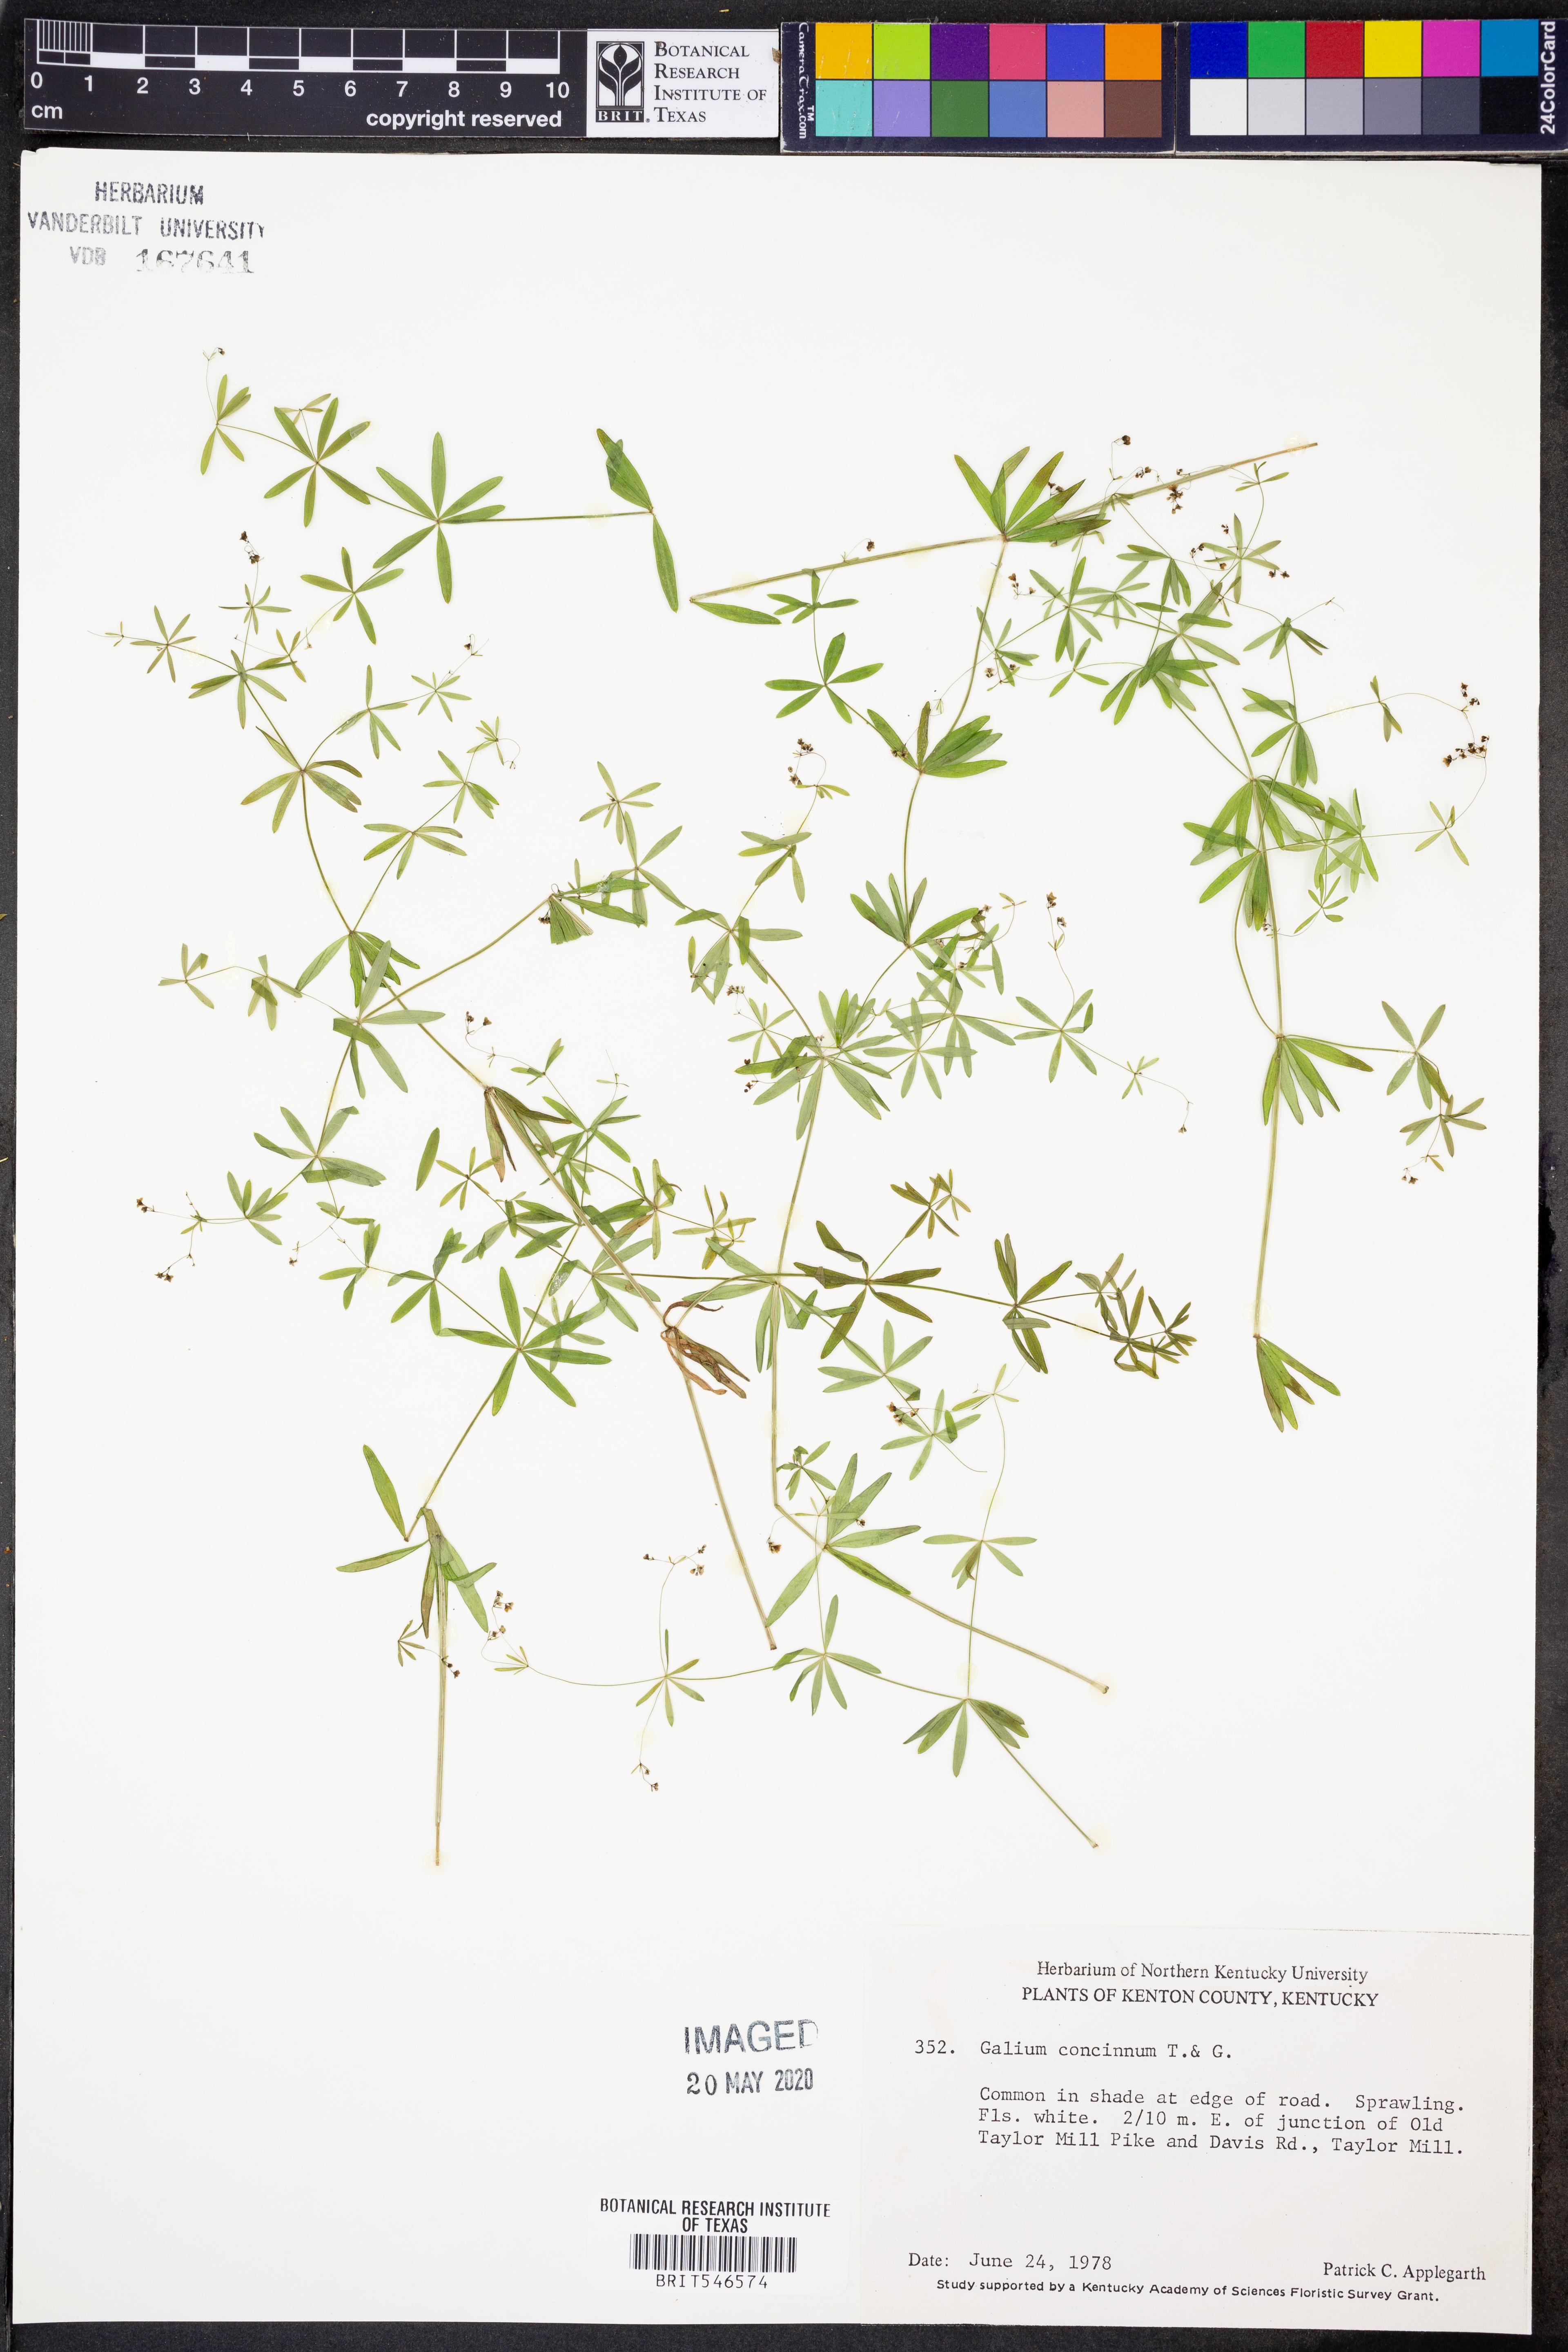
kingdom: Plantae
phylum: Tracheophyta
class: Magnoliopsida
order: Gentianales
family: Rubiaceae
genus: Galium
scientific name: Galium concinnum
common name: Shining bedstraw
